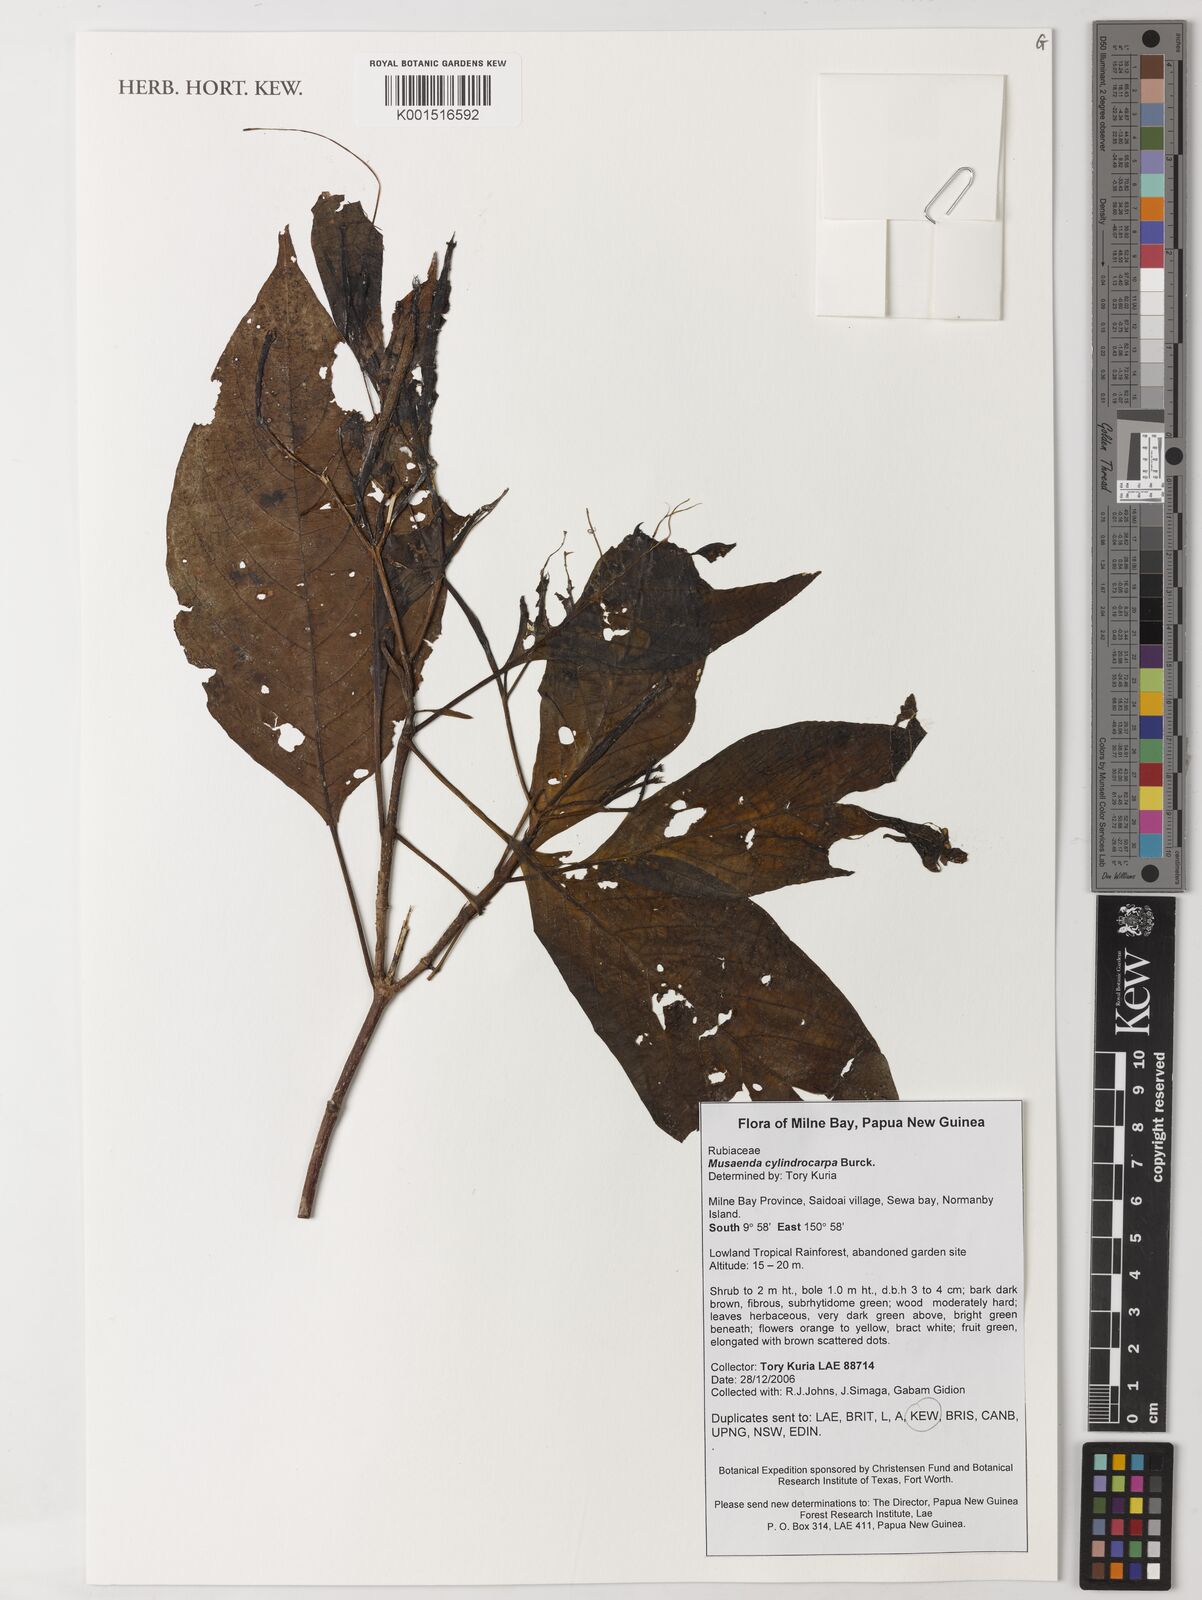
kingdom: Plantae
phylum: Tracheophyta
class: Magnoliopsida
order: Gentianales
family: Rubiaceae
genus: Mussaenda
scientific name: Mussaenda cylindrocarpa
